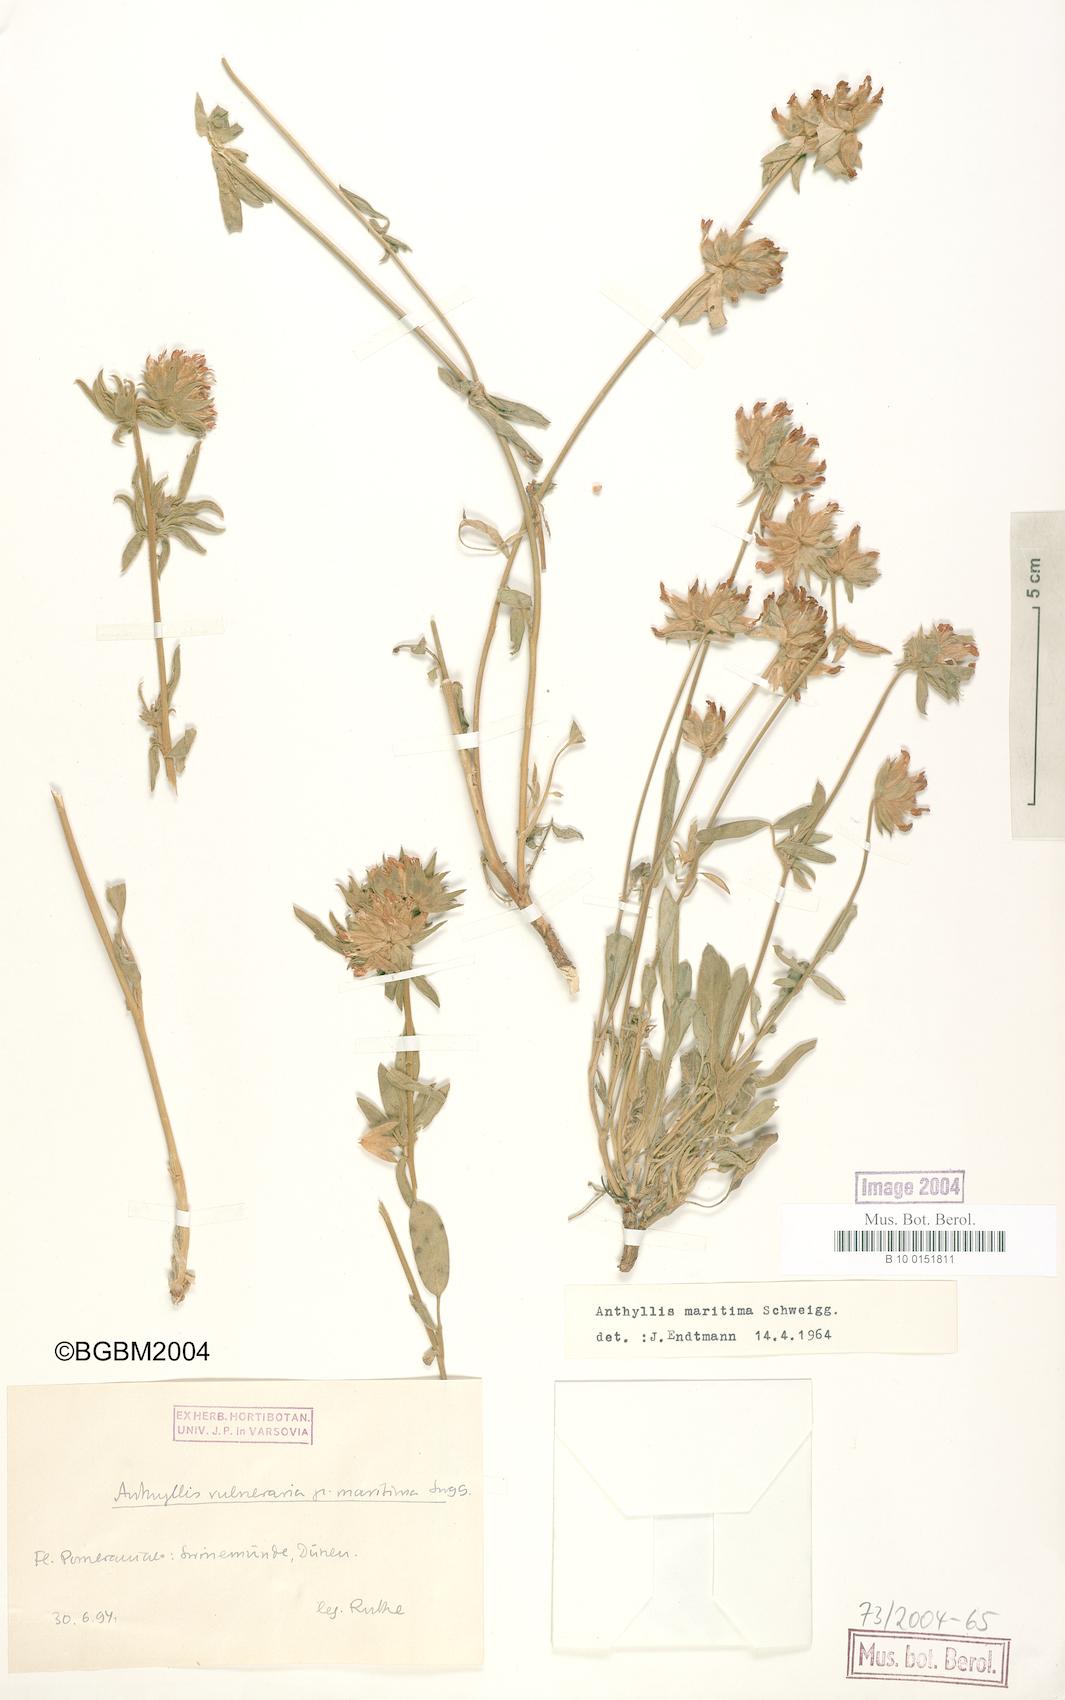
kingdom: Plantae
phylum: Tracheophyta
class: Magnoliopsida
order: Fabales
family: Fabaceae
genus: Anthyllis
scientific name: Anthyllis vulneraria
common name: Kidney vetch
